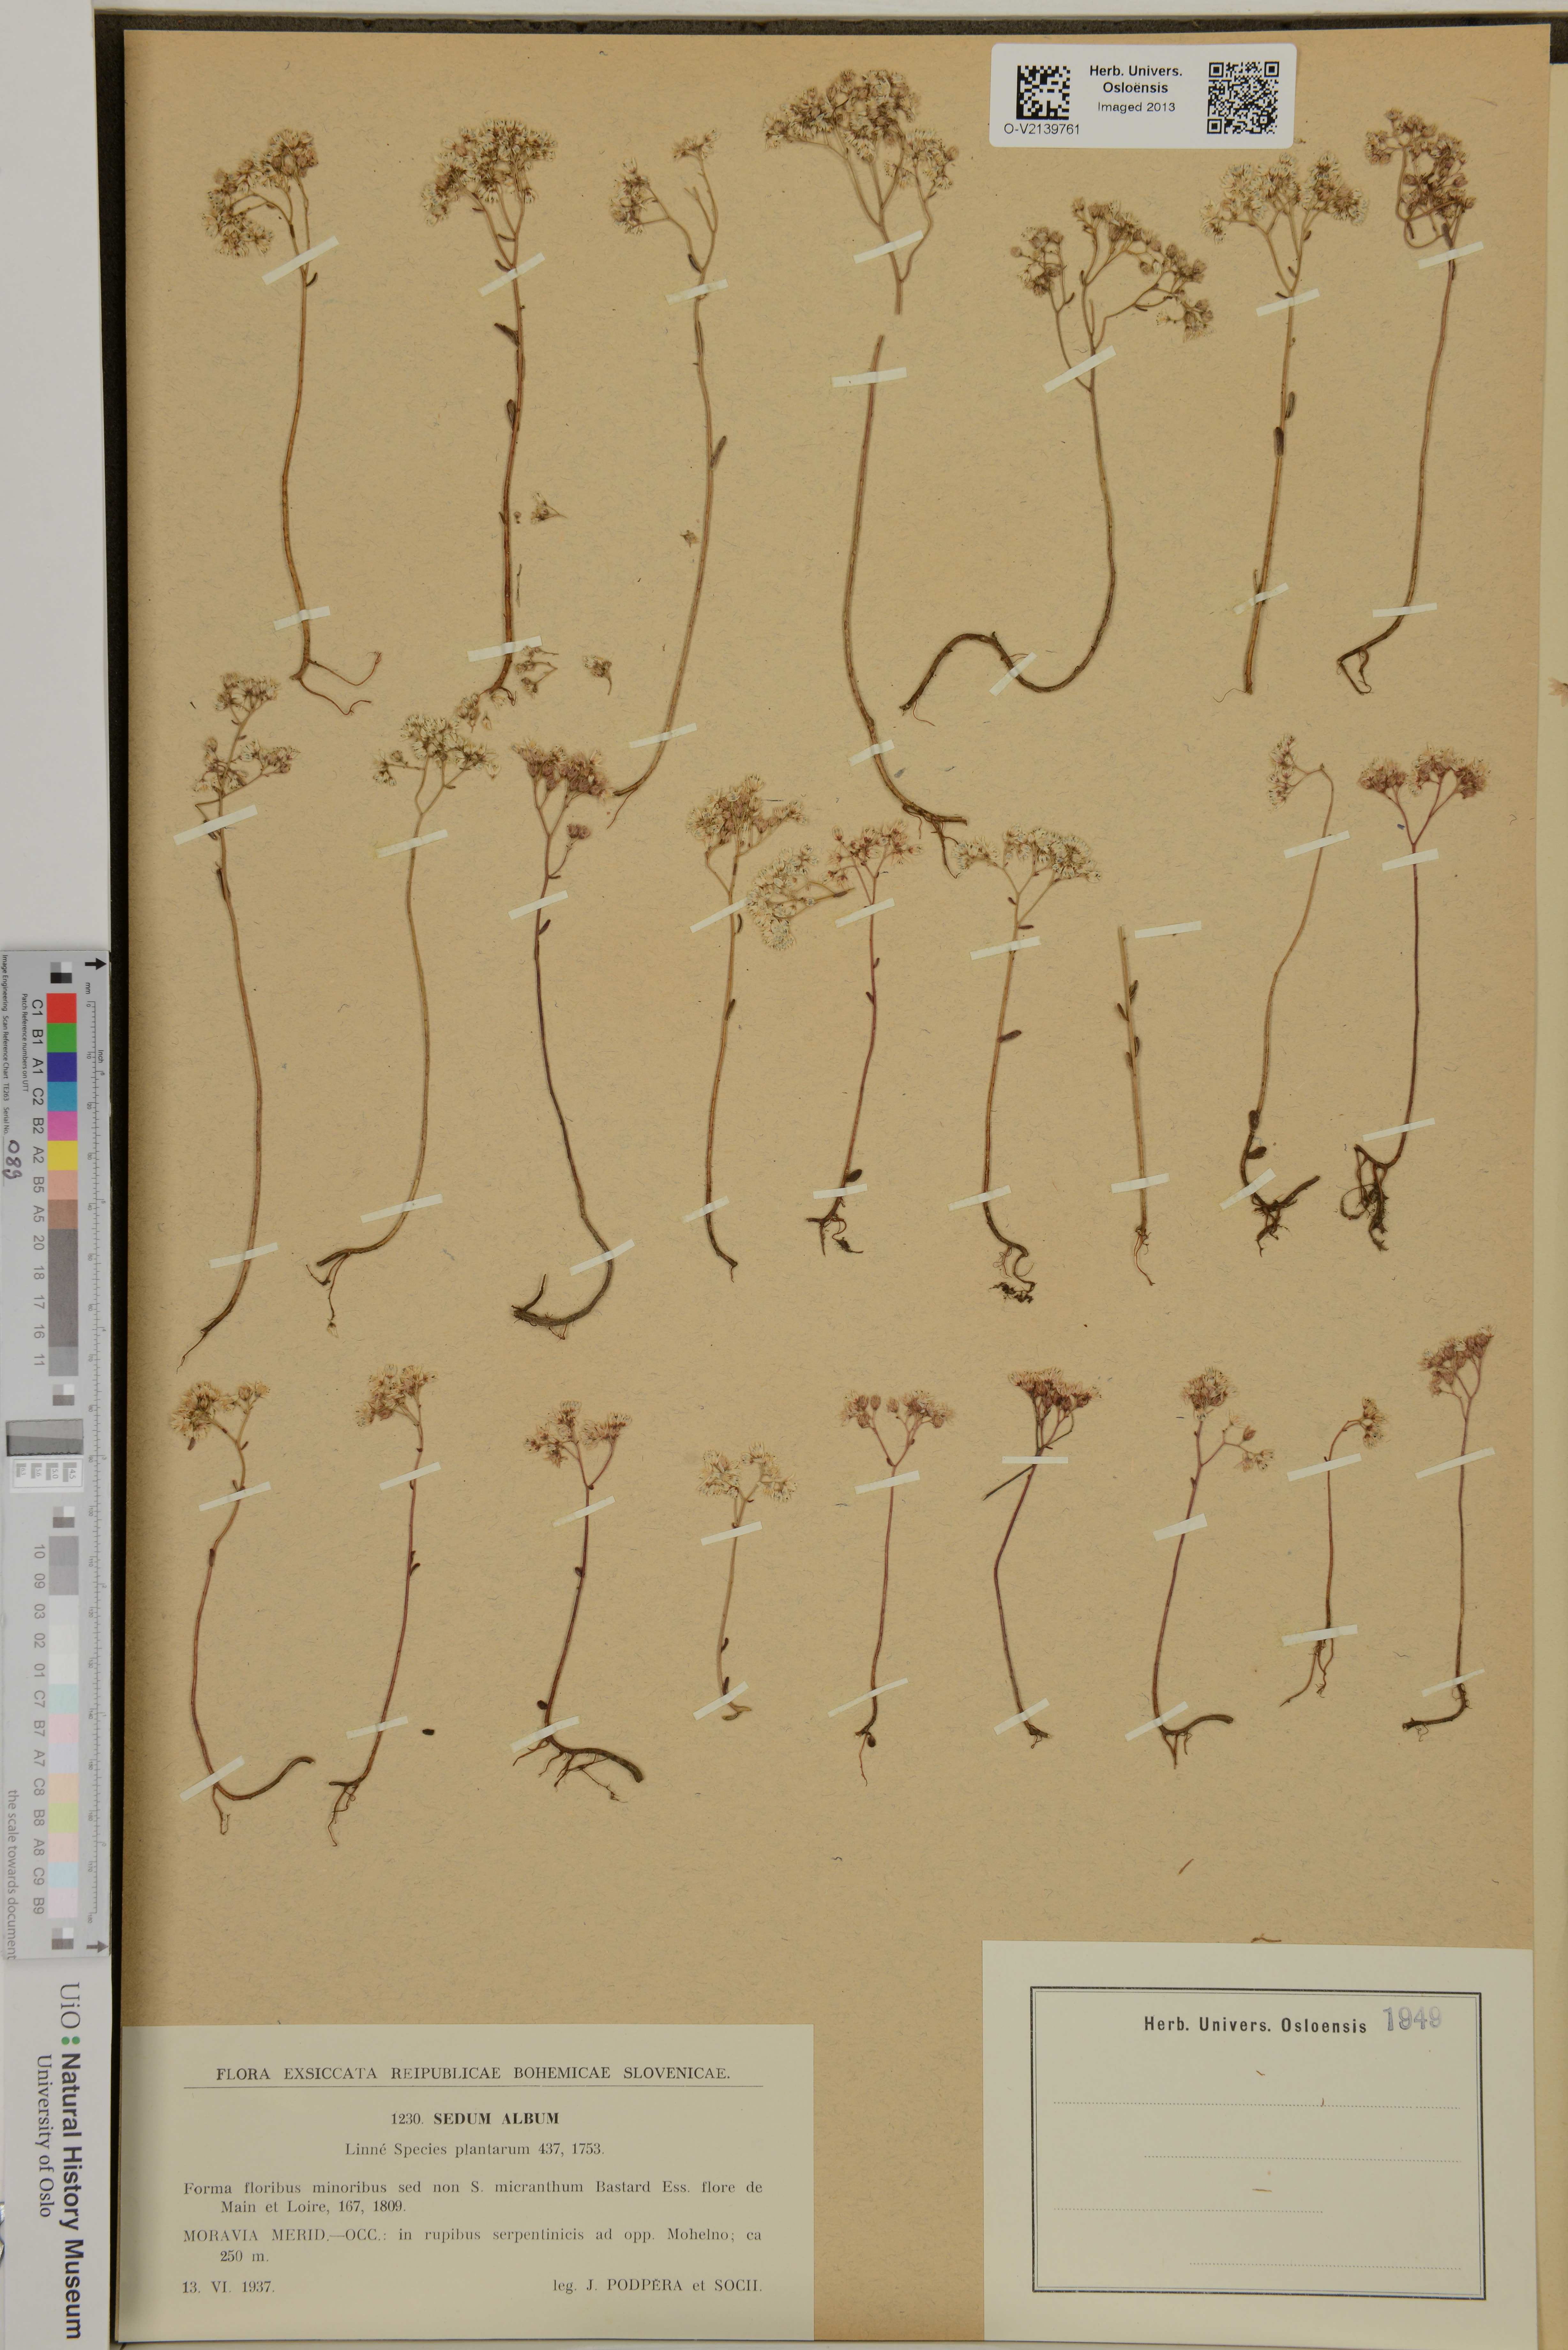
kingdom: Plantae
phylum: Tracheophyta
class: Magnoliopsida
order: Saxifragales
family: Crassulaceae
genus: Sedum
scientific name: Sedum album
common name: White stonecrop
